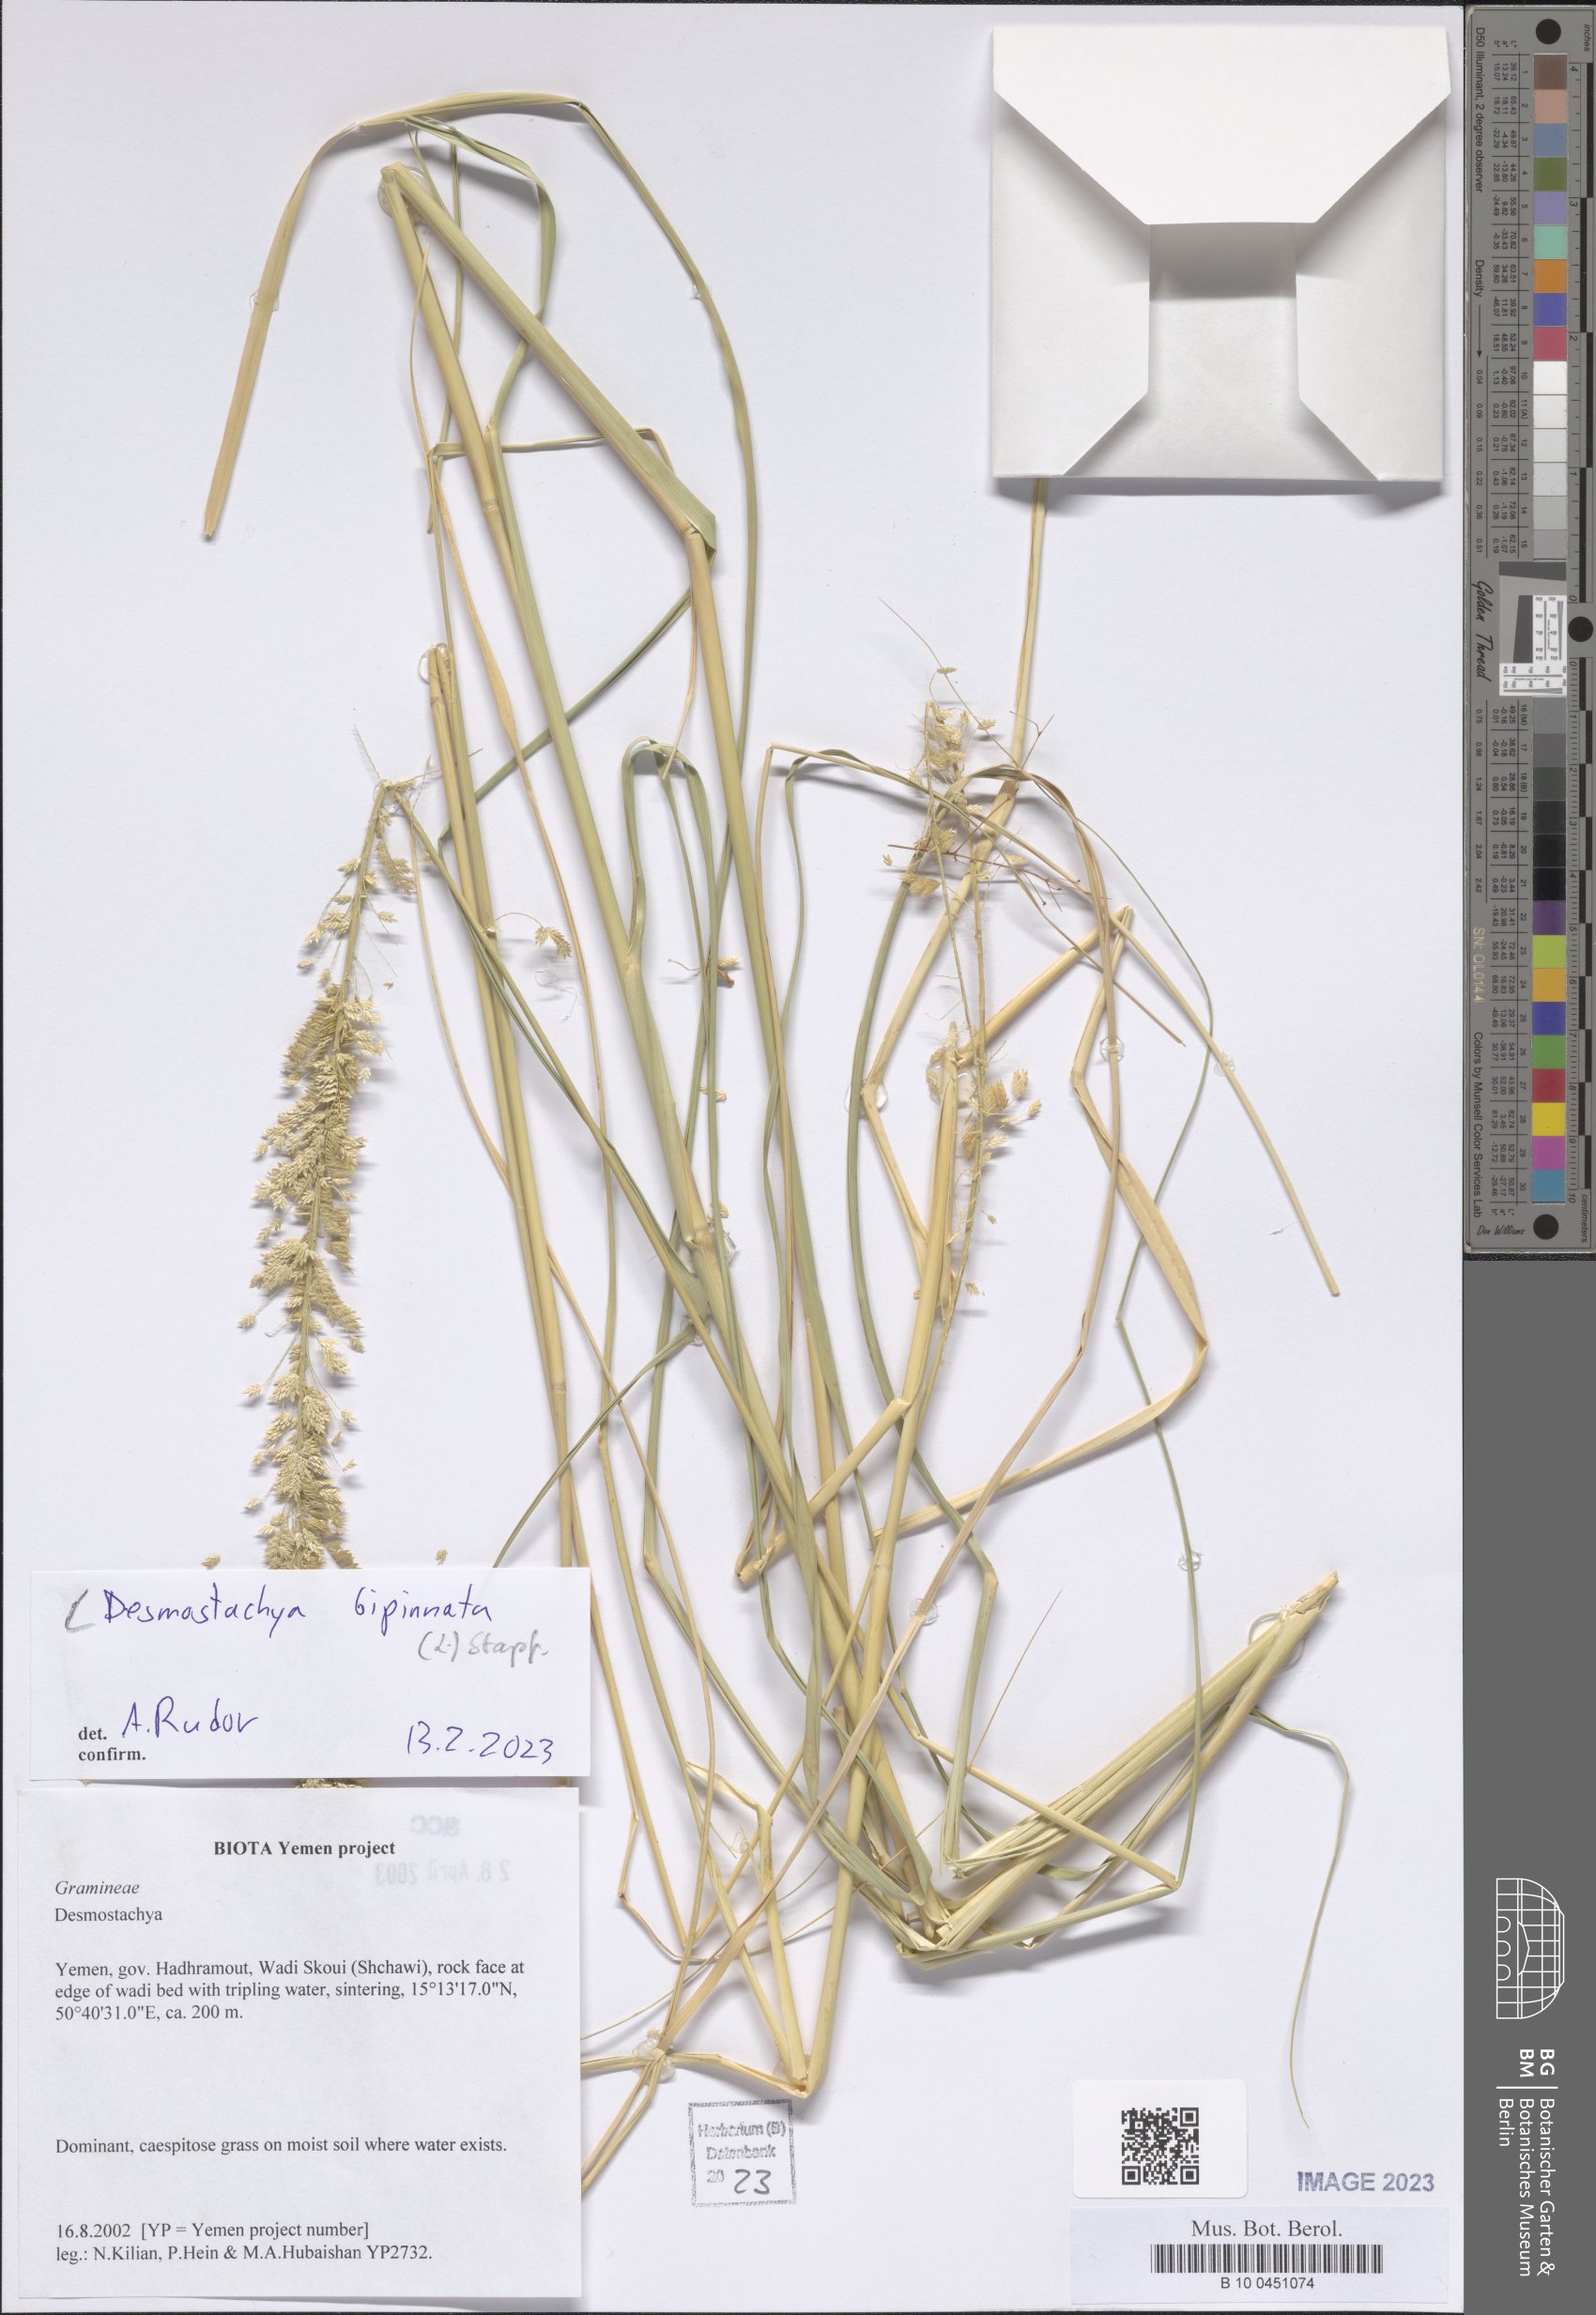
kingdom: Plantae
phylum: Tracheophyta
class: Liliopsida
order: Poales
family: Poaceae
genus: Desmostachya
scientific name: Desmostachya bipinnata
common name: Crowfoot grass
